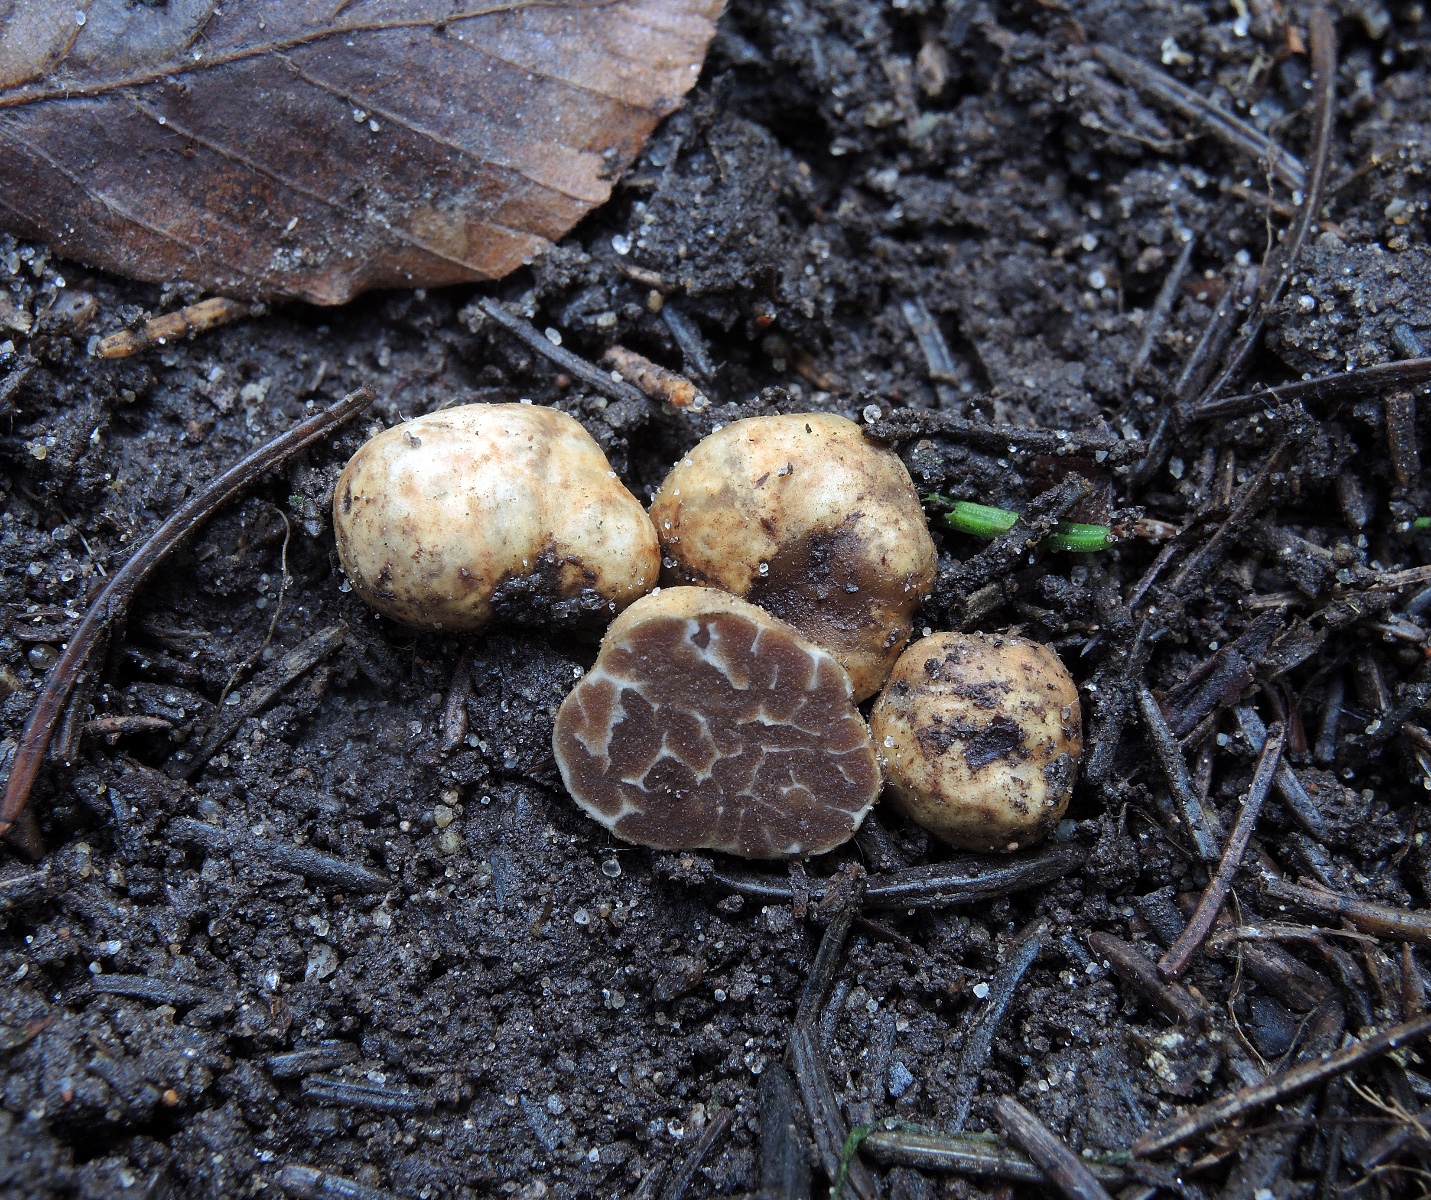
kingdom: Fungi
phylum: Ascomycota
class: Pezizomycetes
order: Pezizales
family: Tuberaceae
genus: Tuber
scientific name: Tuber maculatum
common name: plettet trøffel
